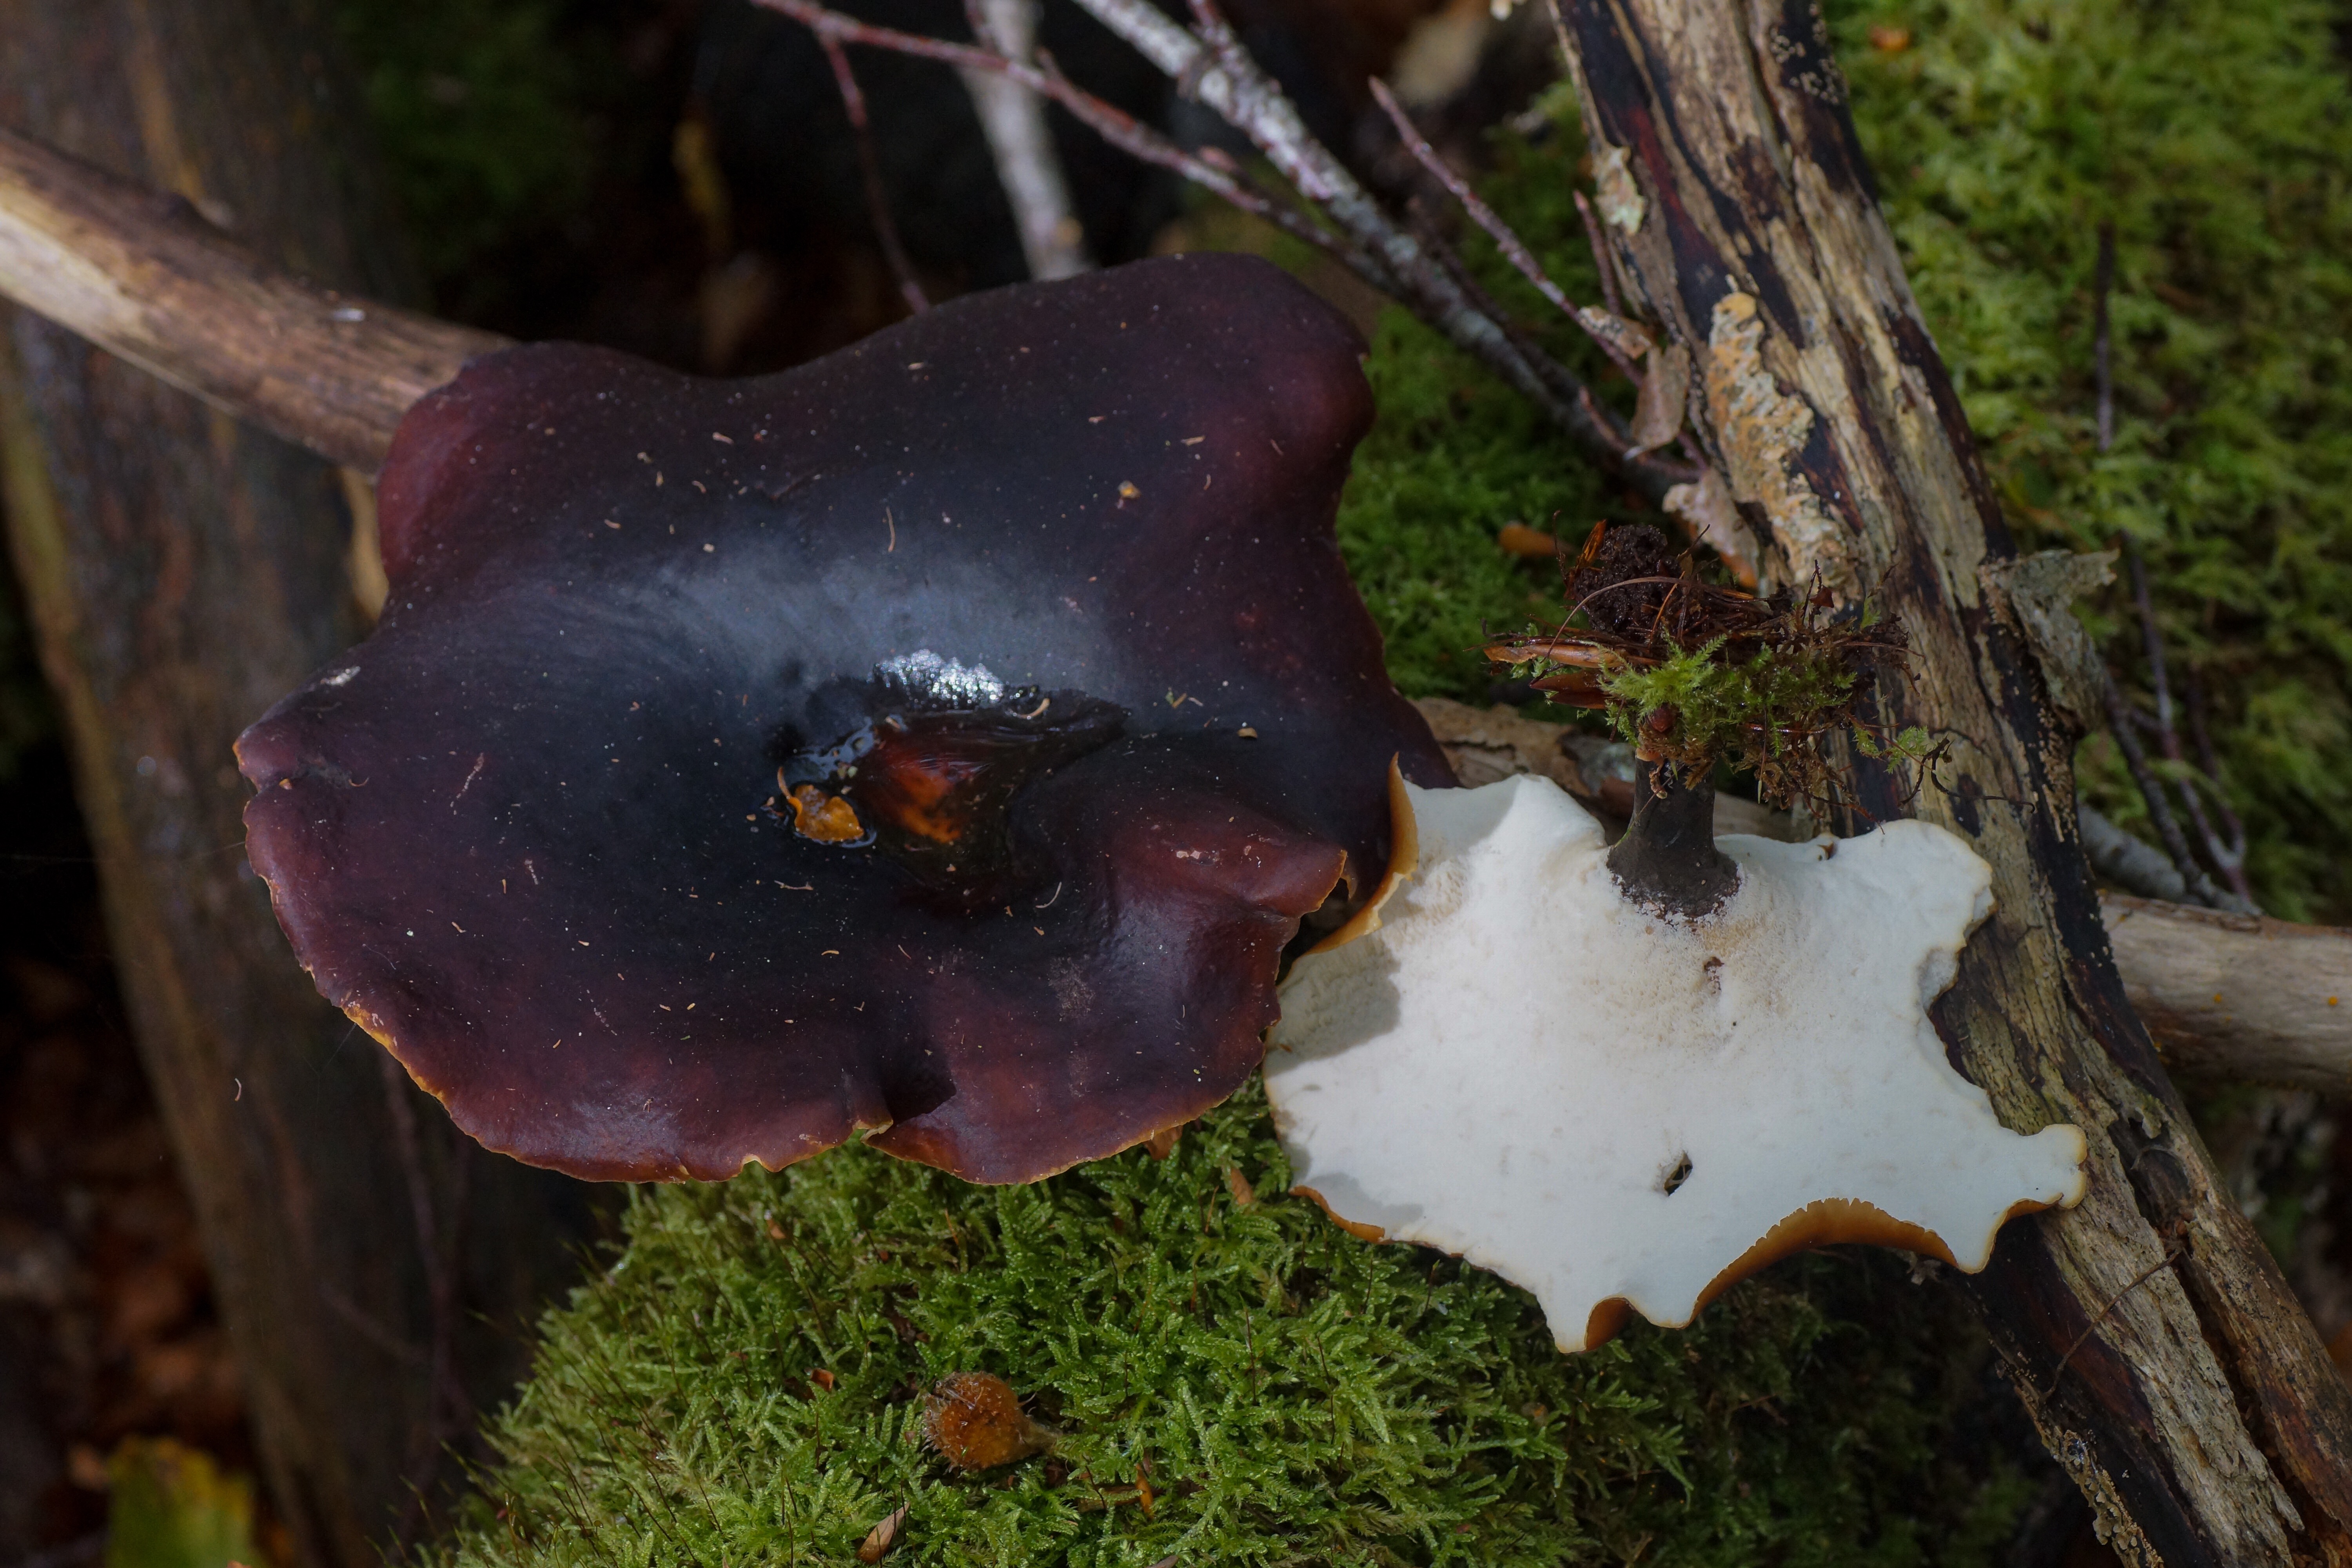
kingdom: Fungi
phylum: Basidiomycota
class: Agaricomycetes
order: Polyporales
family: Polyporaceae
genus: Picipes
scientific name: Picipes badius
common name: kastaniebrun stilkporesvamp
